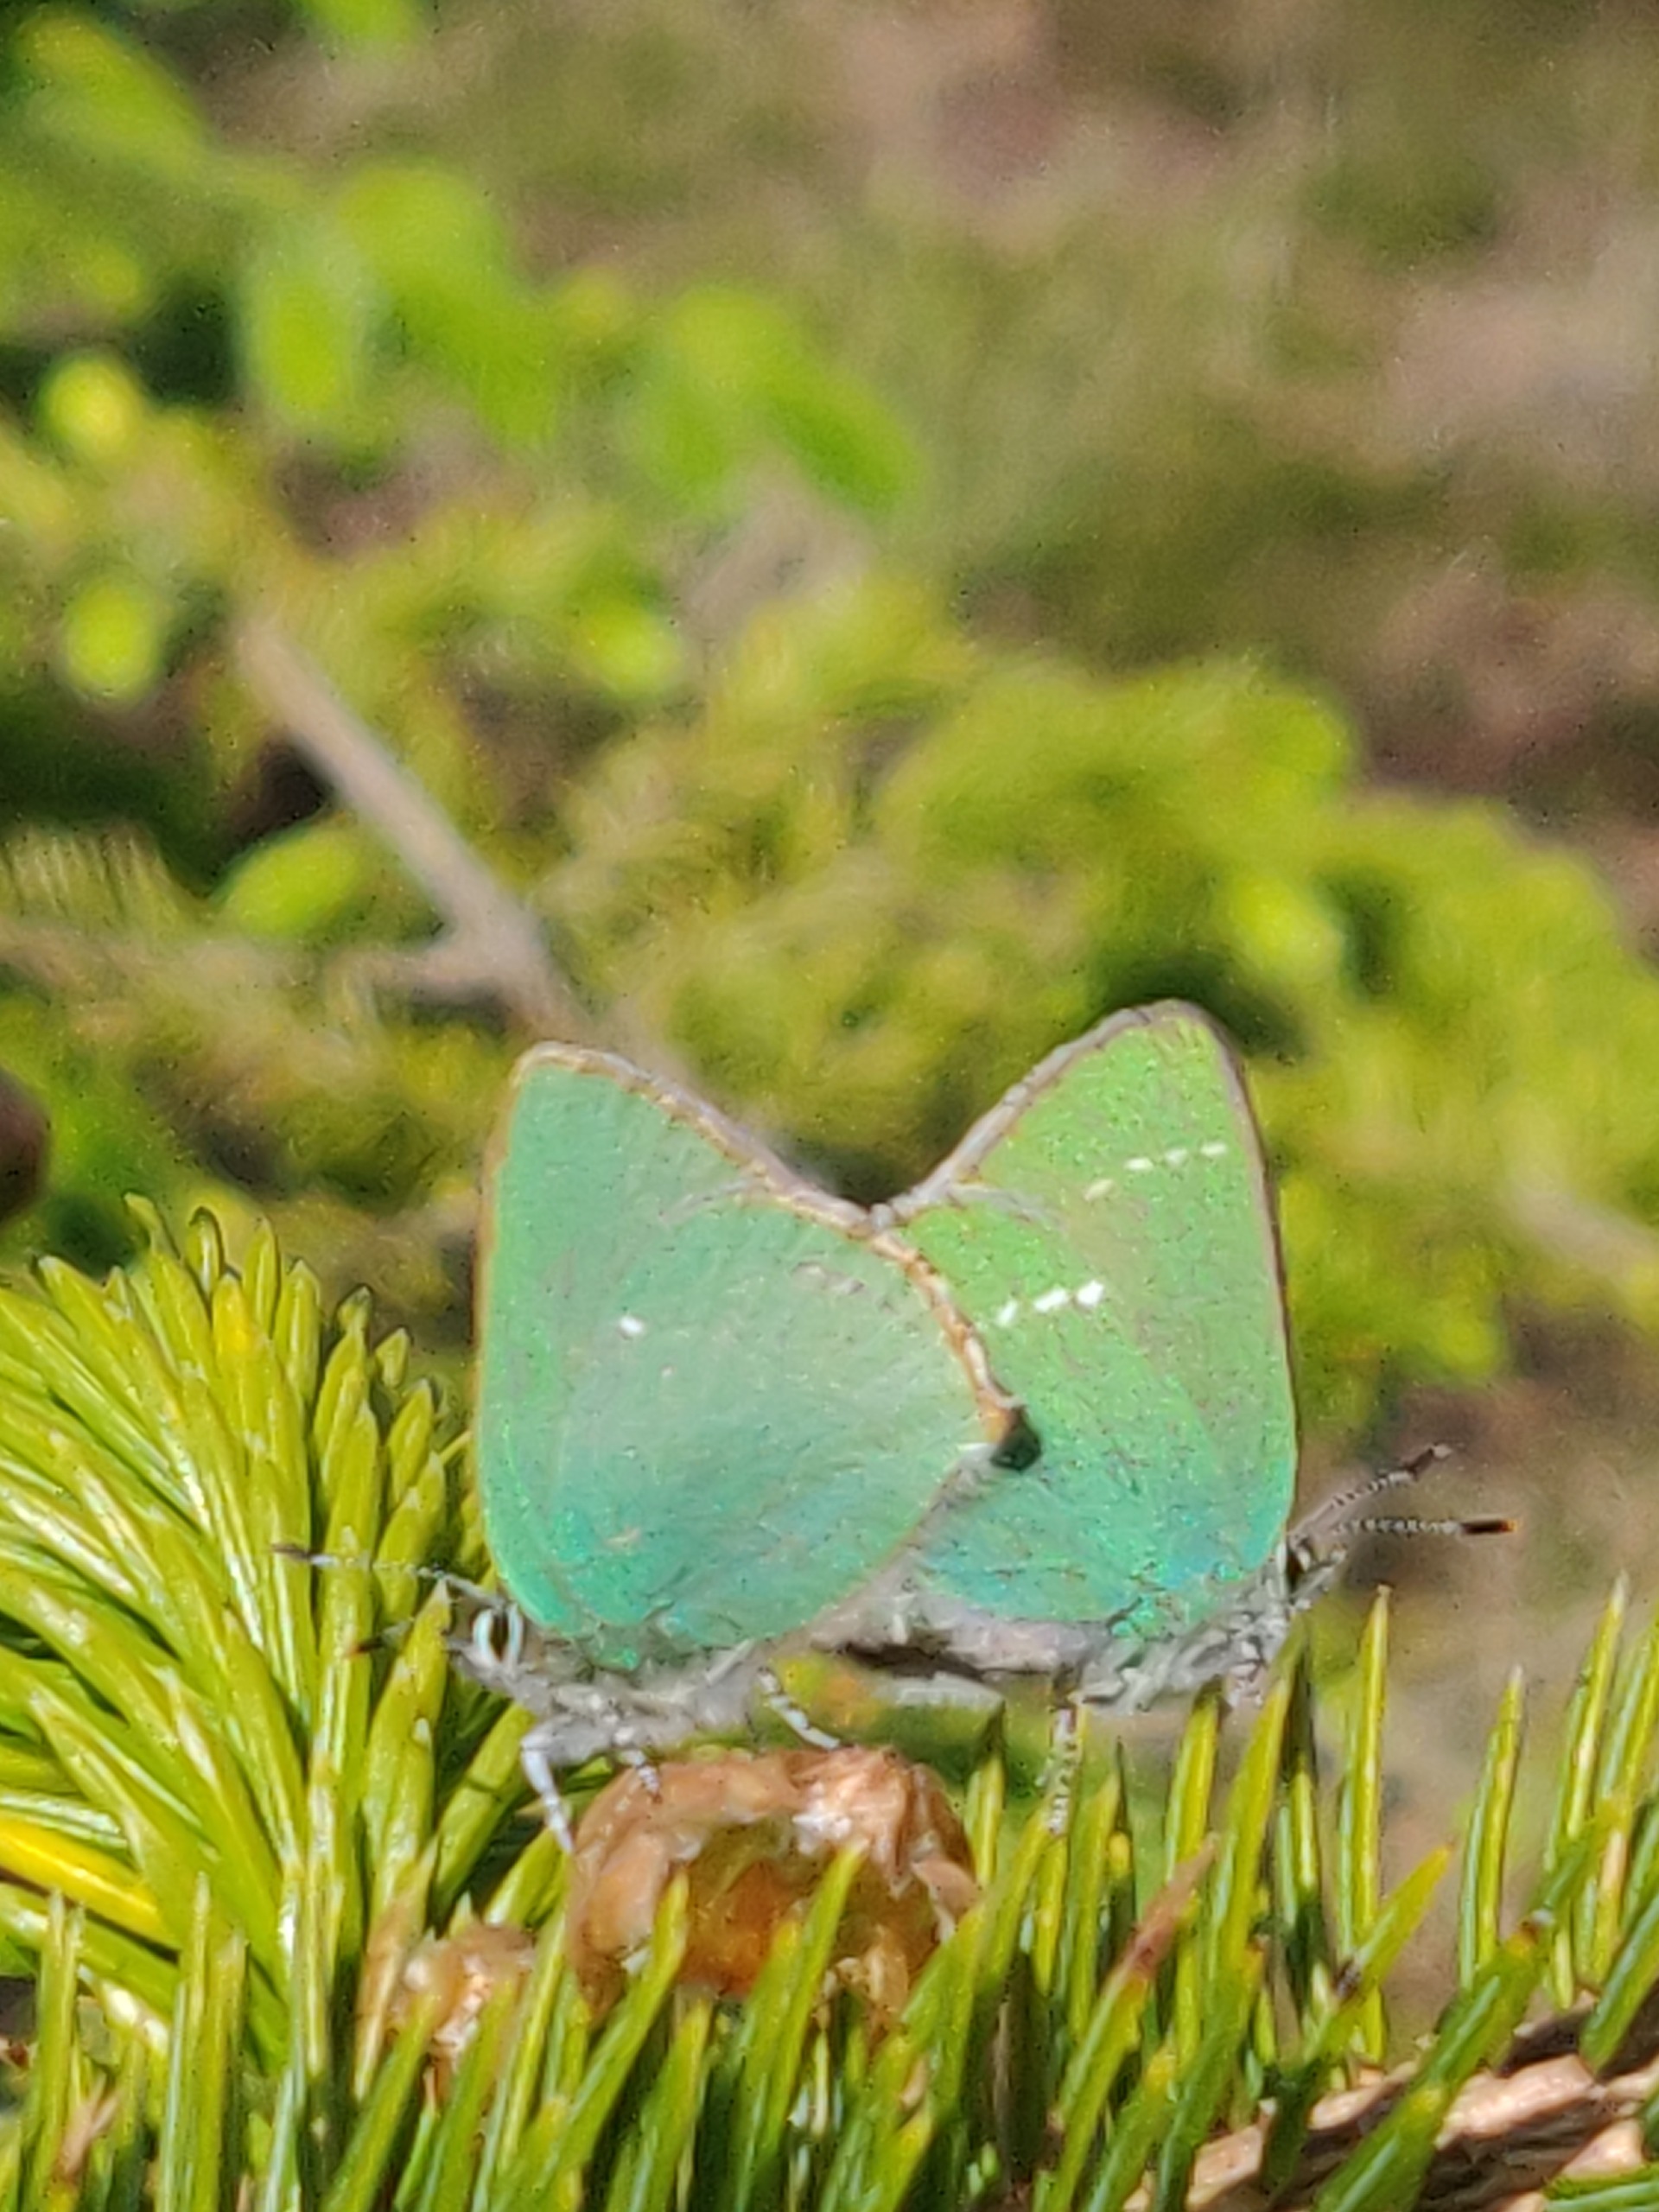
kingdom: Animalia
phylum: Arthropoda
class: Insecta
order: Lepidoptera
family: Lycaenidae
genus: Callophrys
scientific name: Callophrys rubi
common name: Grøn busksommerfugl
